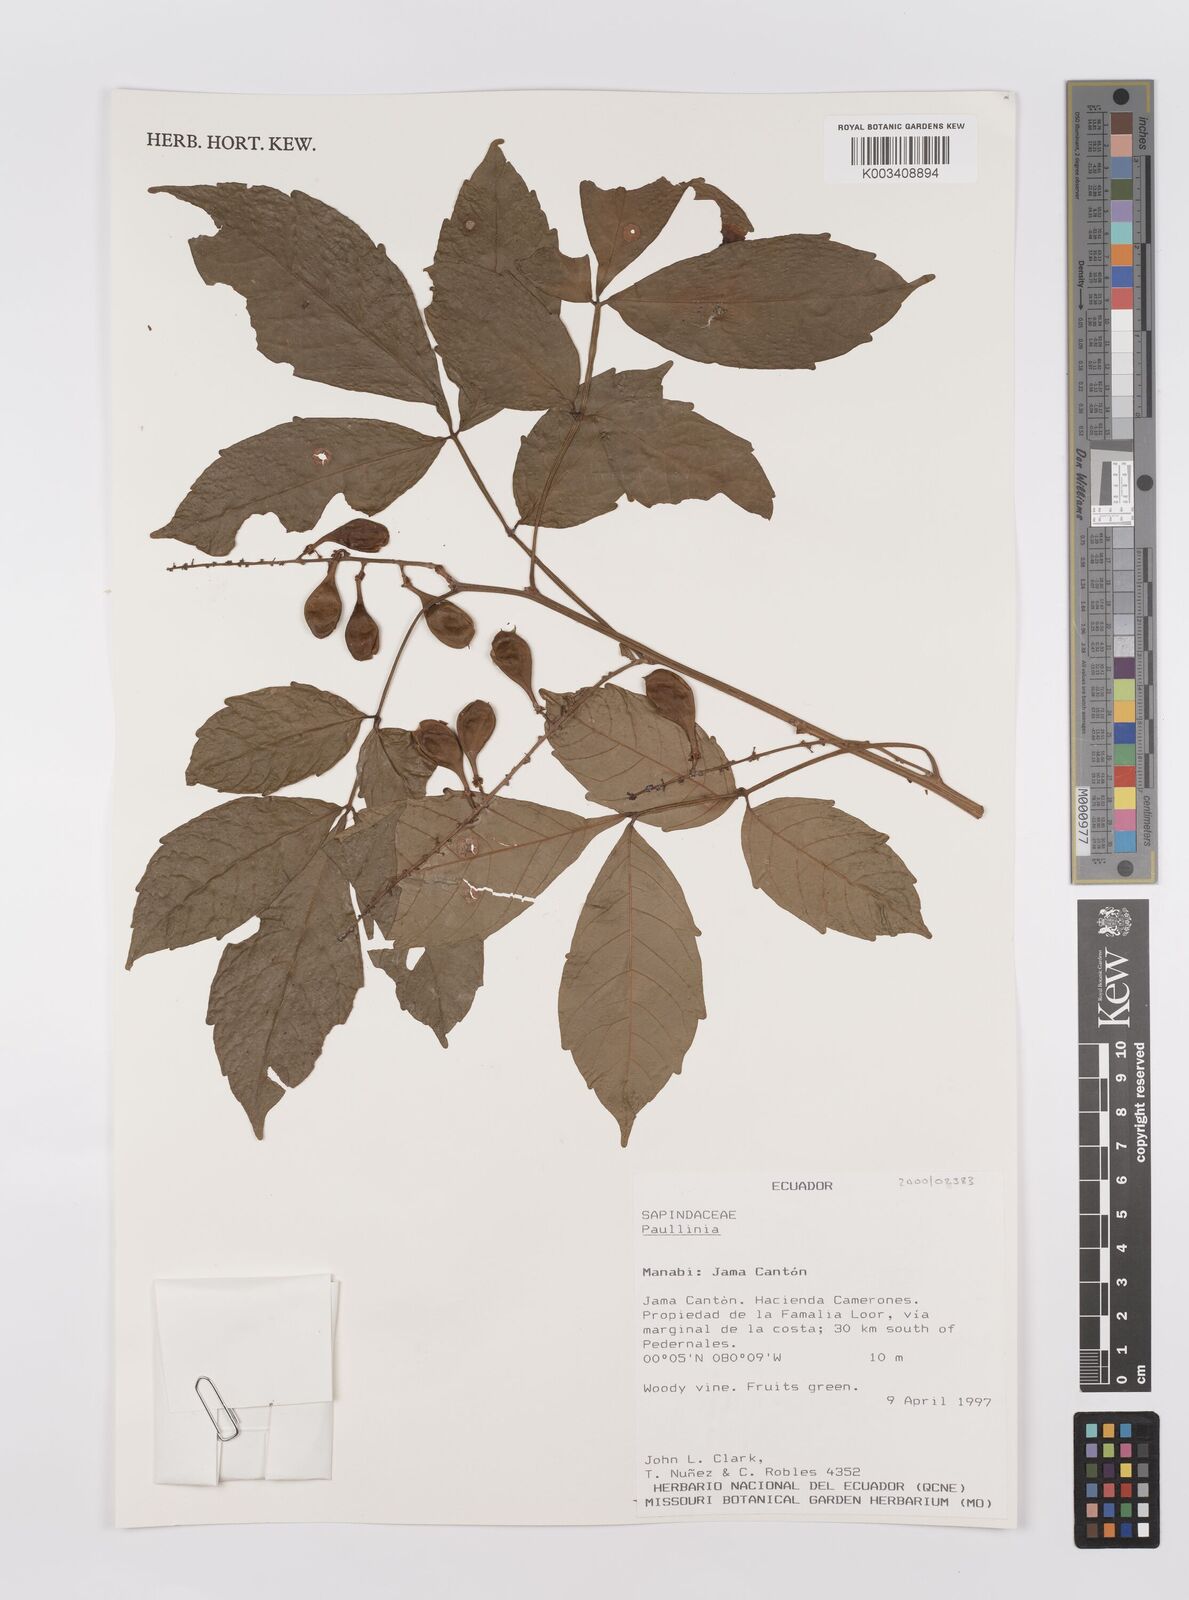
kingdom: Plantae
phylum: Tracheophyta
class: Magnoliopsida
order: Sapindales
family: Sapindaceae
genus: Paullinia
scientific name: Paullinia
